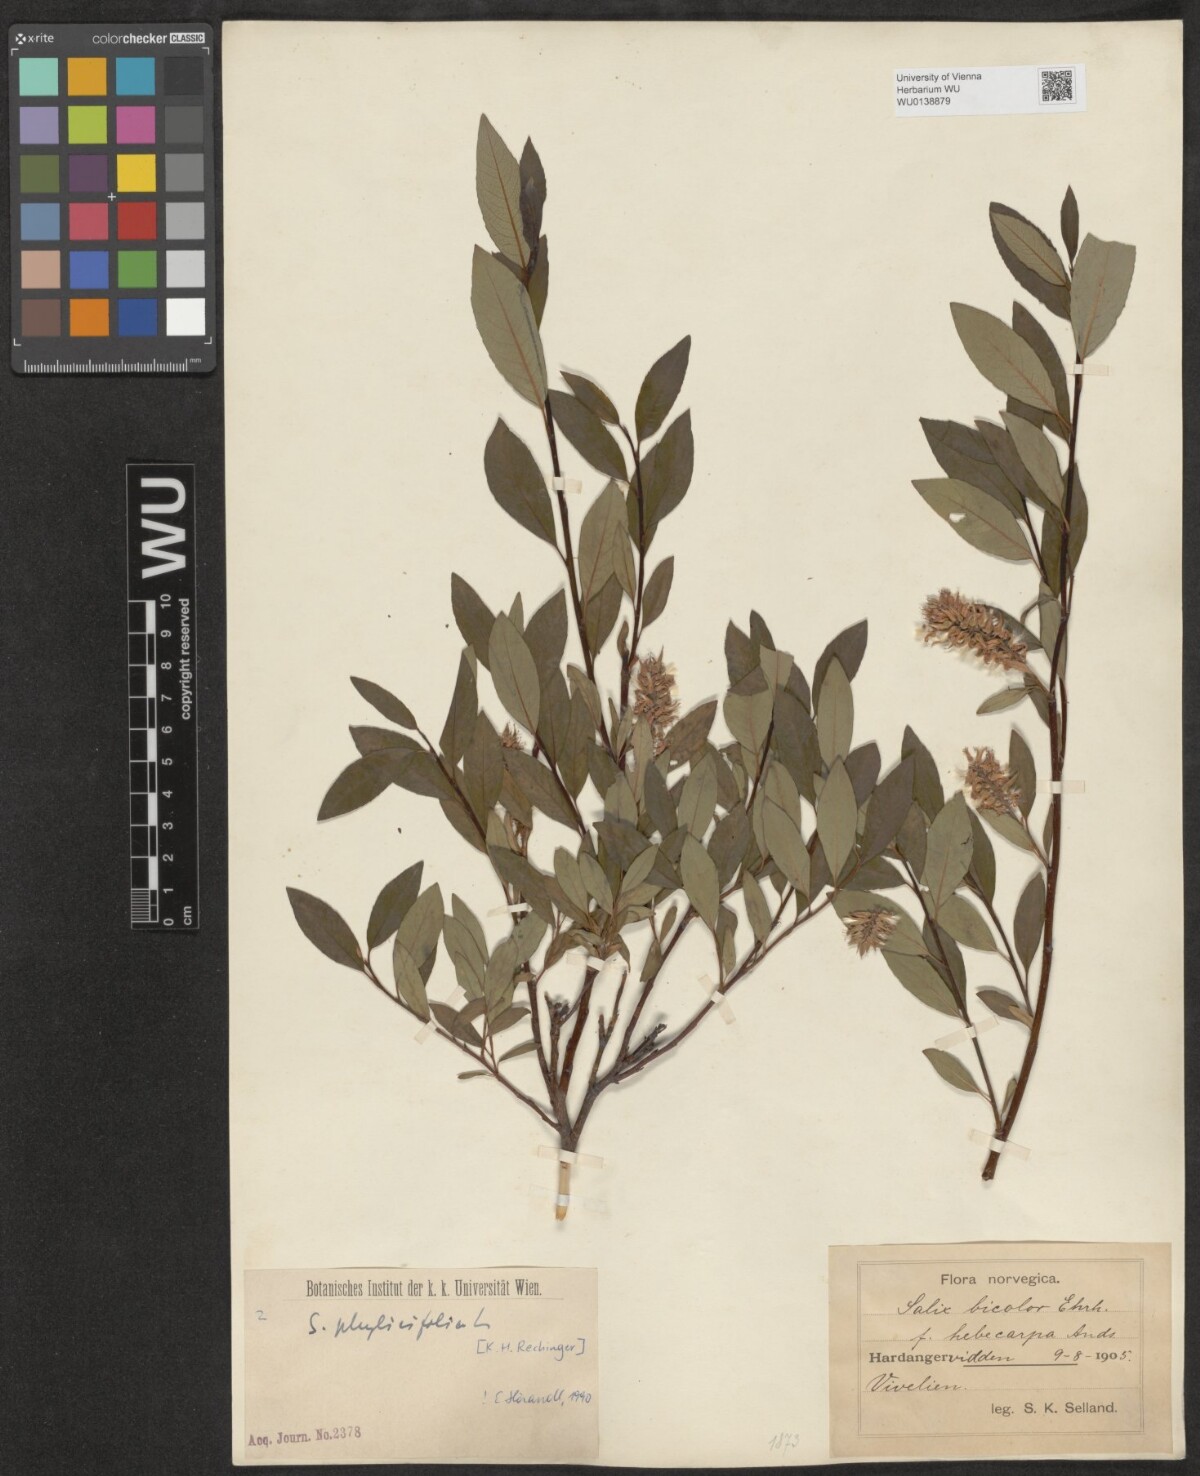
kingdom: Plantae
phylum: Tracheophyta
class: Magnoliopsida
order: Malpighiales
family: Salicaceae
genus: Salix
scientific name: Salix phylicifolia
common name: Tea-leaved willow
